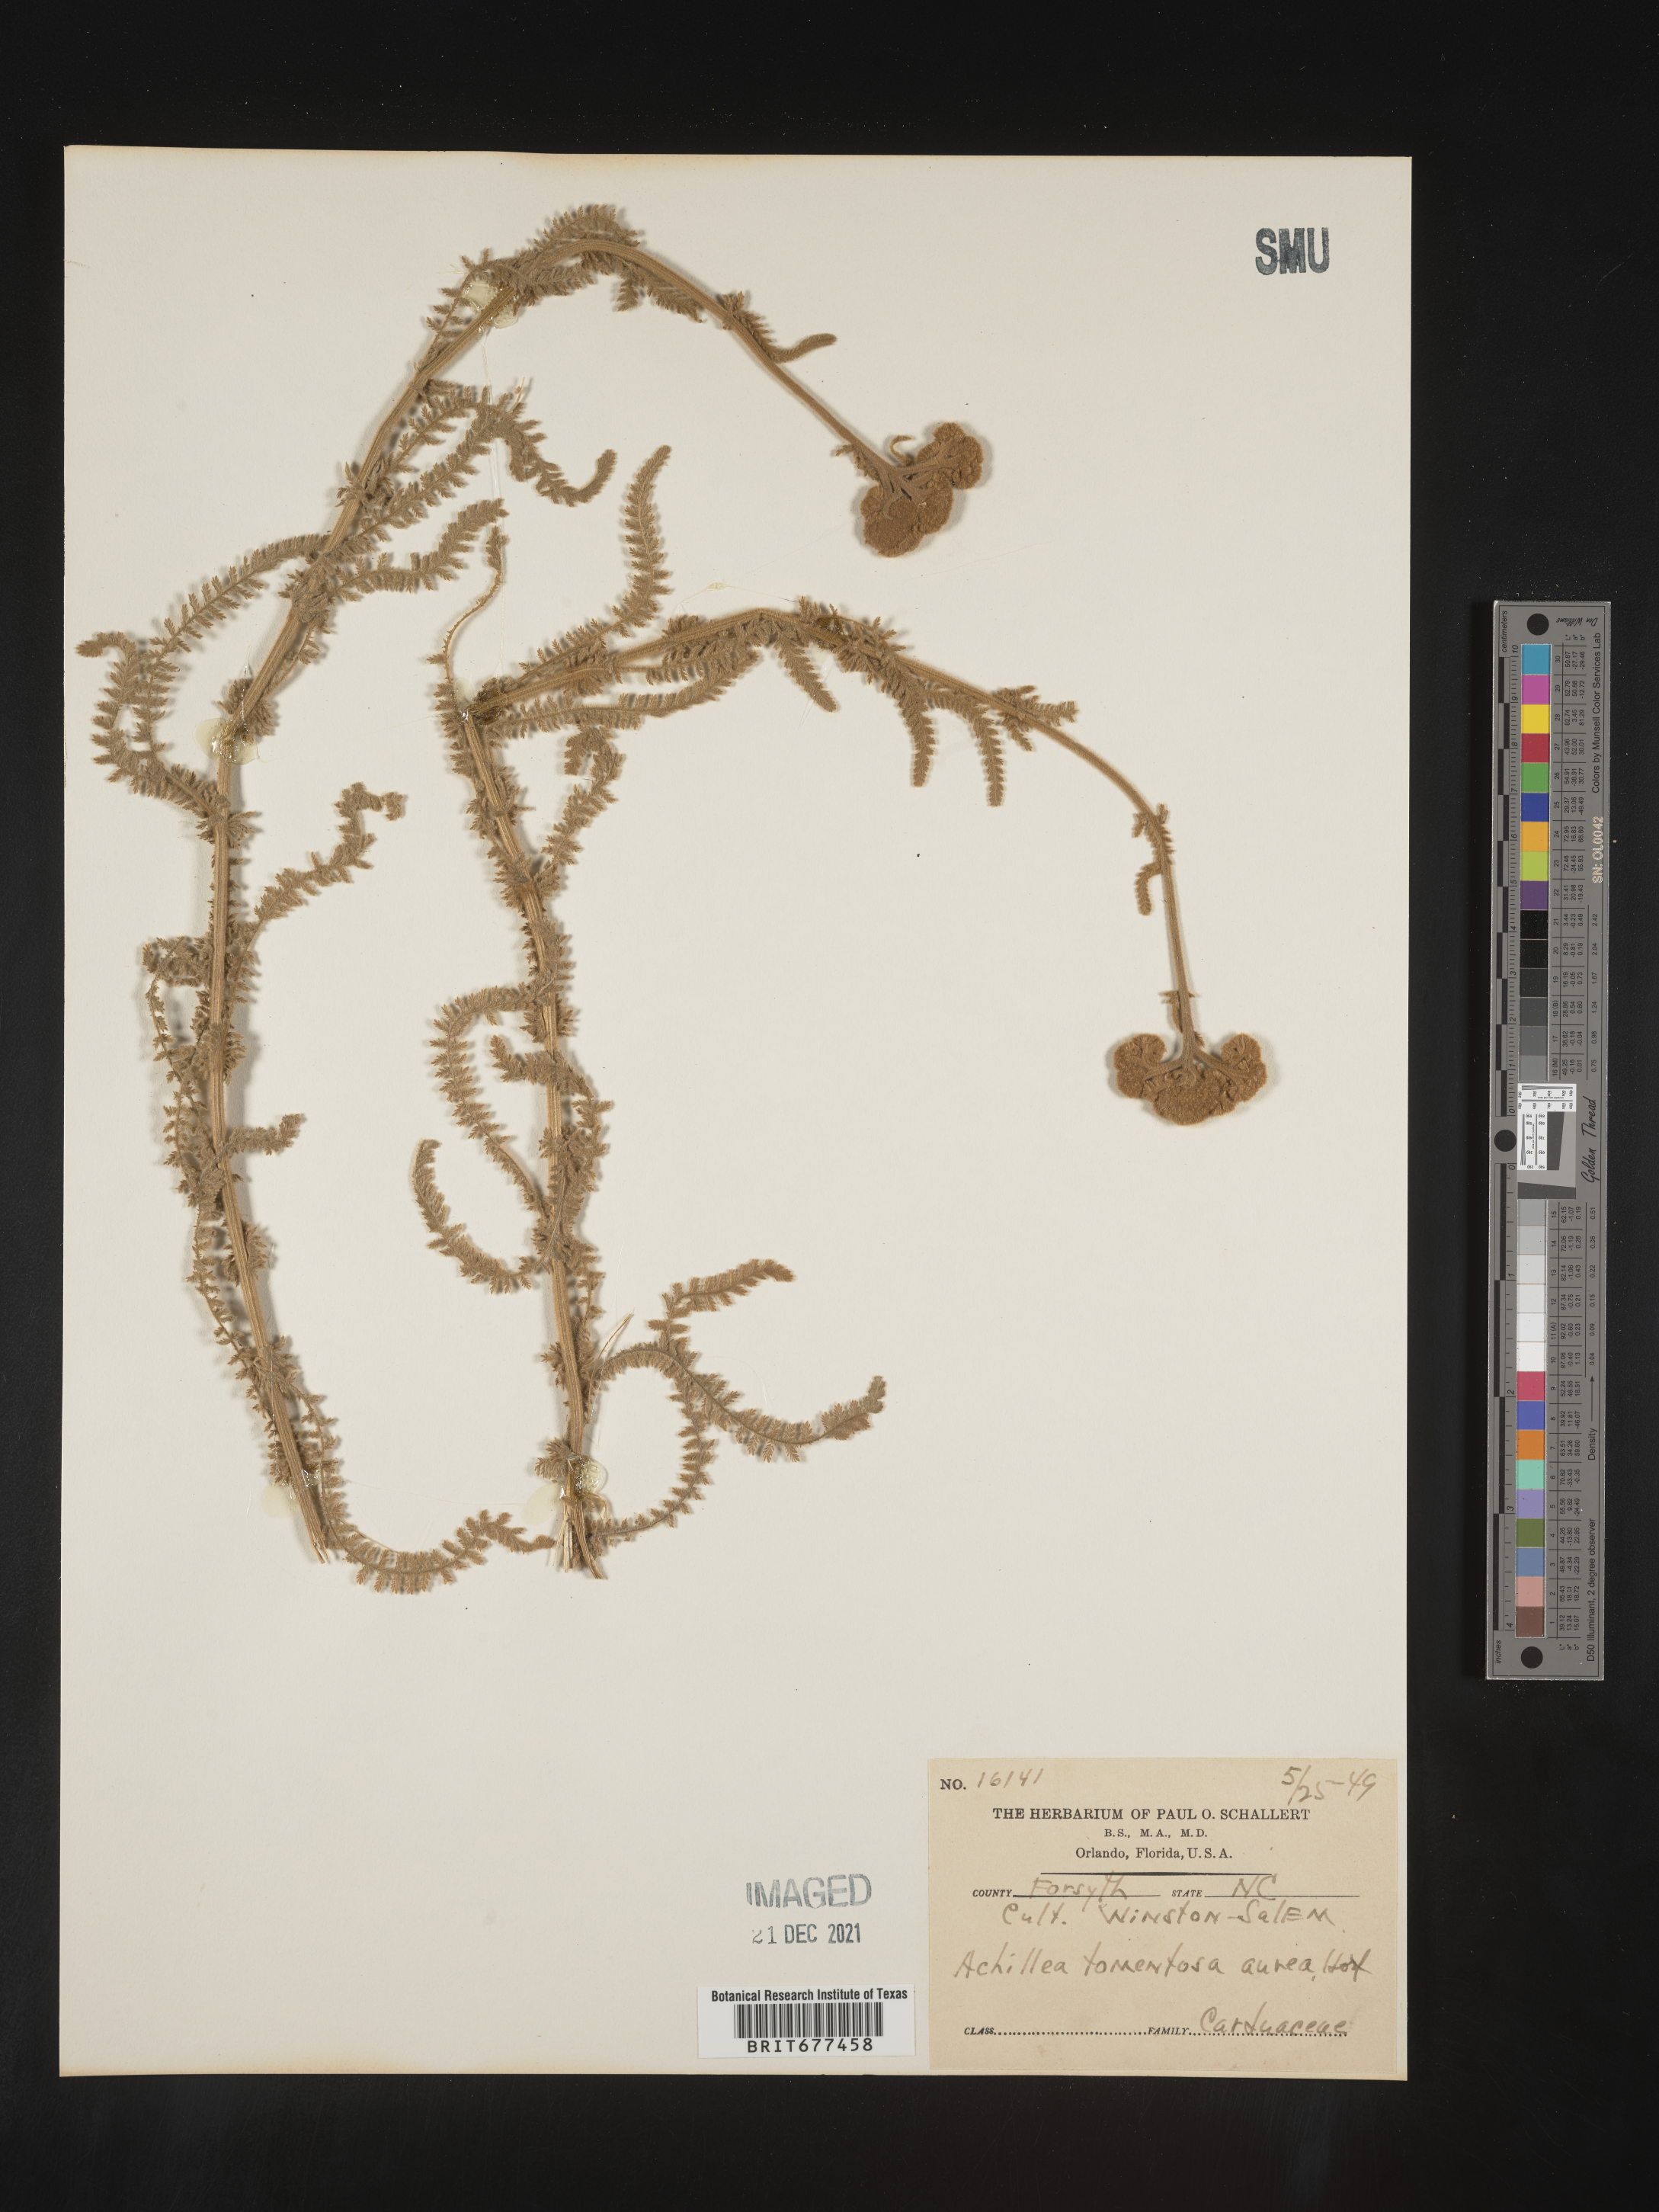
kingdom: Plantae
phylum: Tracheophyta
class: Magnoliopsida
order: Asterales
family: Asteraceae
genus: Achillea
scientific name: Achillea
